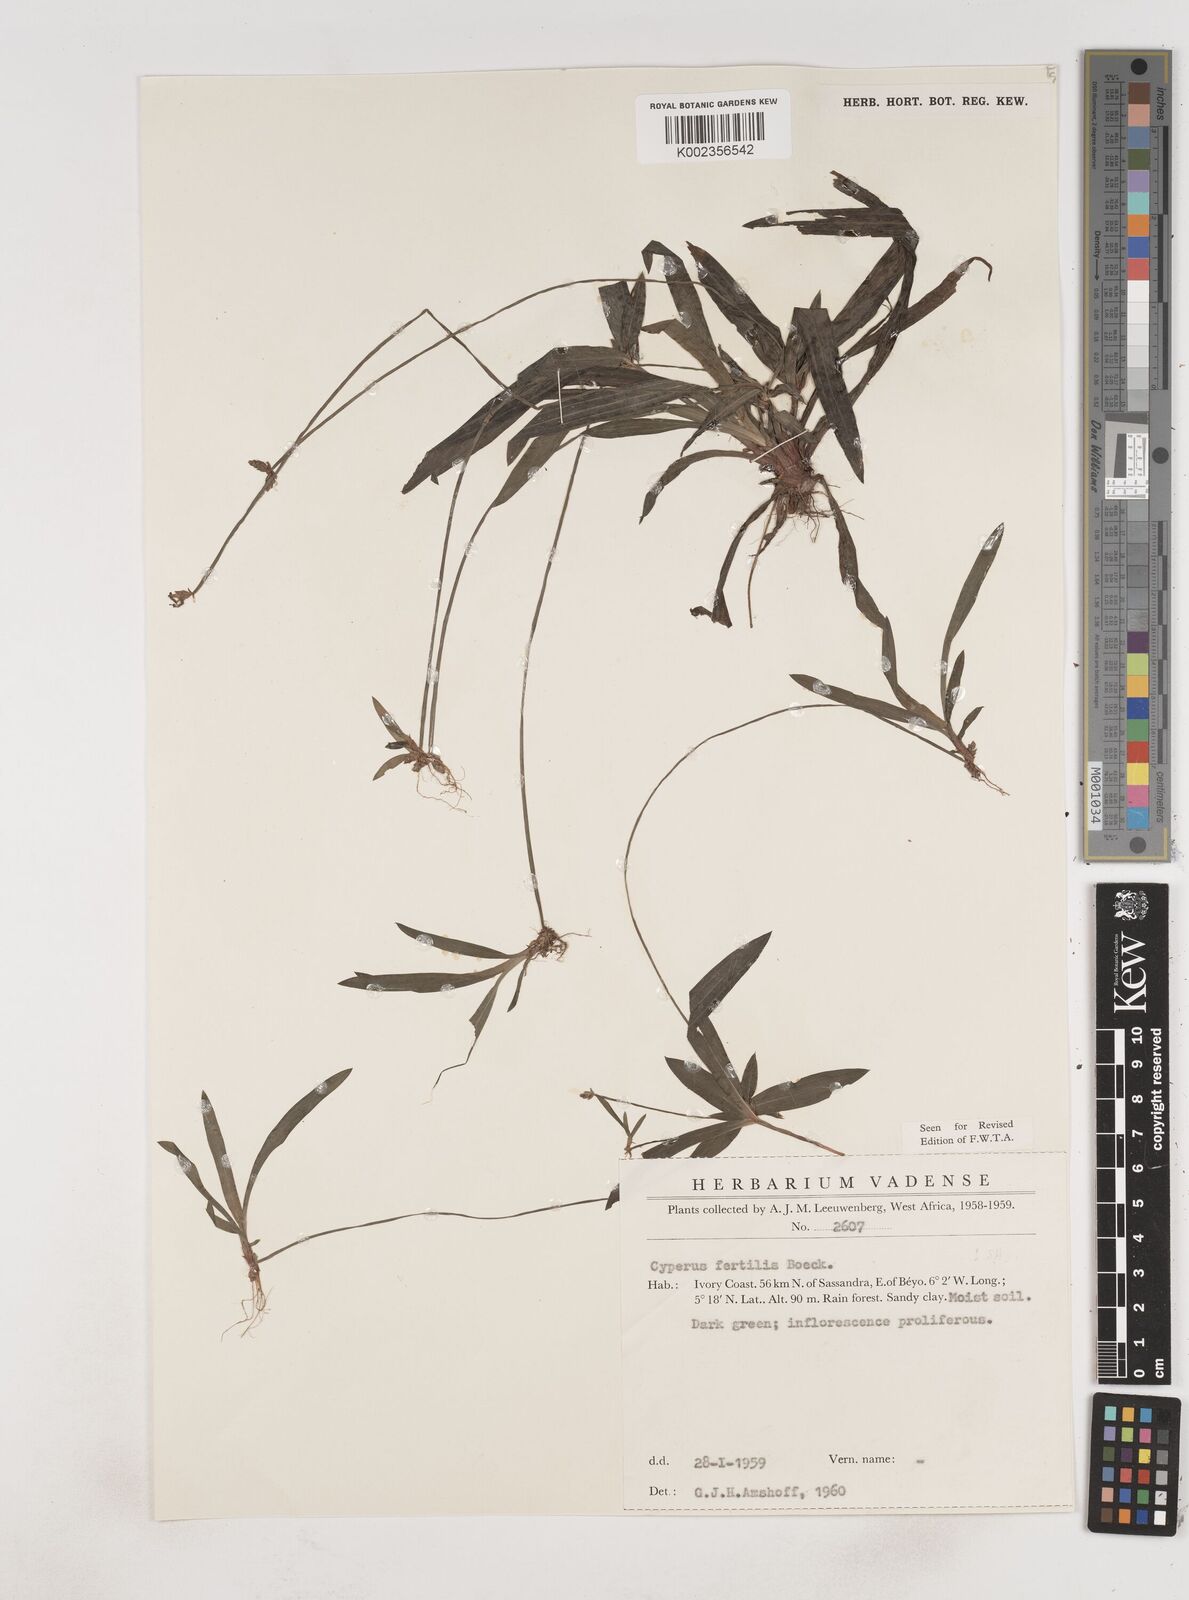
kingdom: Plantae
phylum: Tracheophyta
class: Liliopsida
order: Poales
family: Cyperaceae
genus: Cyperus
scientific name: Cyperus fertilis
